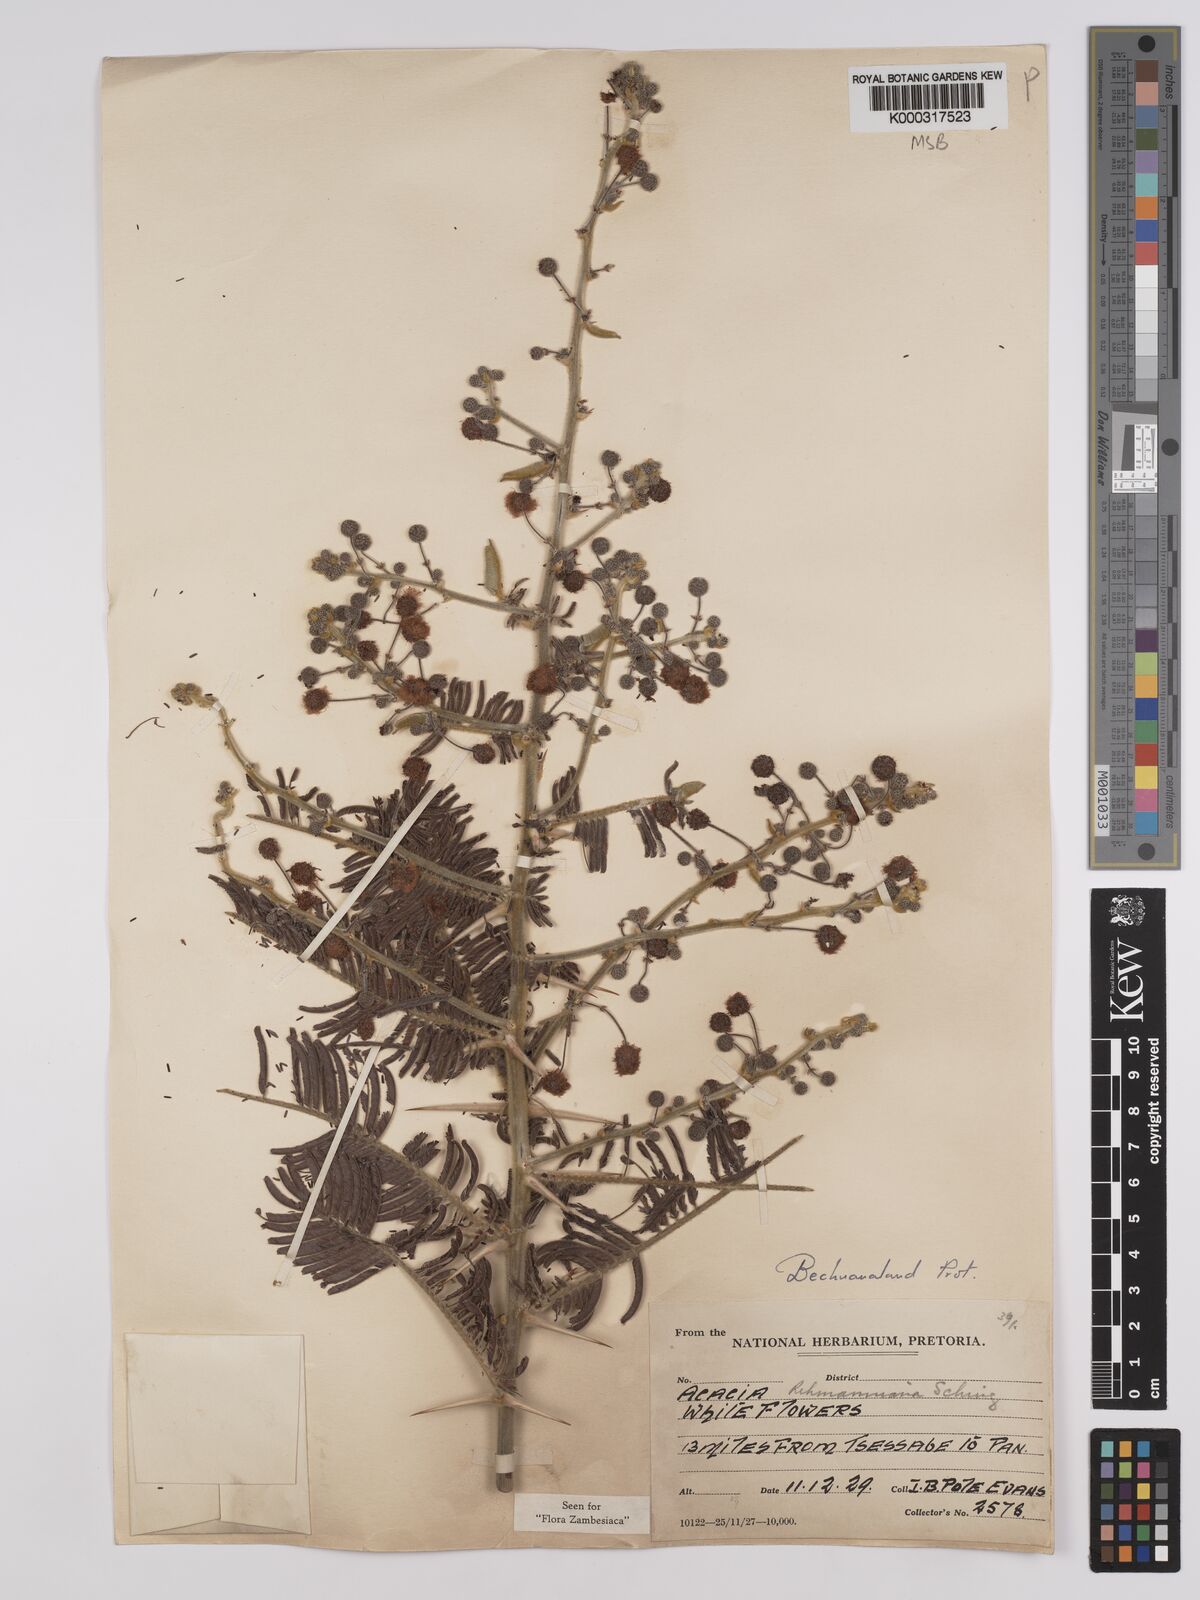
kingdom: Plantae
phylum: Tracheophyta
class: Magnoliopsida
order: Fabales
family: Fabaceae
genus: Vachellia
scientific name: Vachellia rehmanniana
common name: Silky thorn
